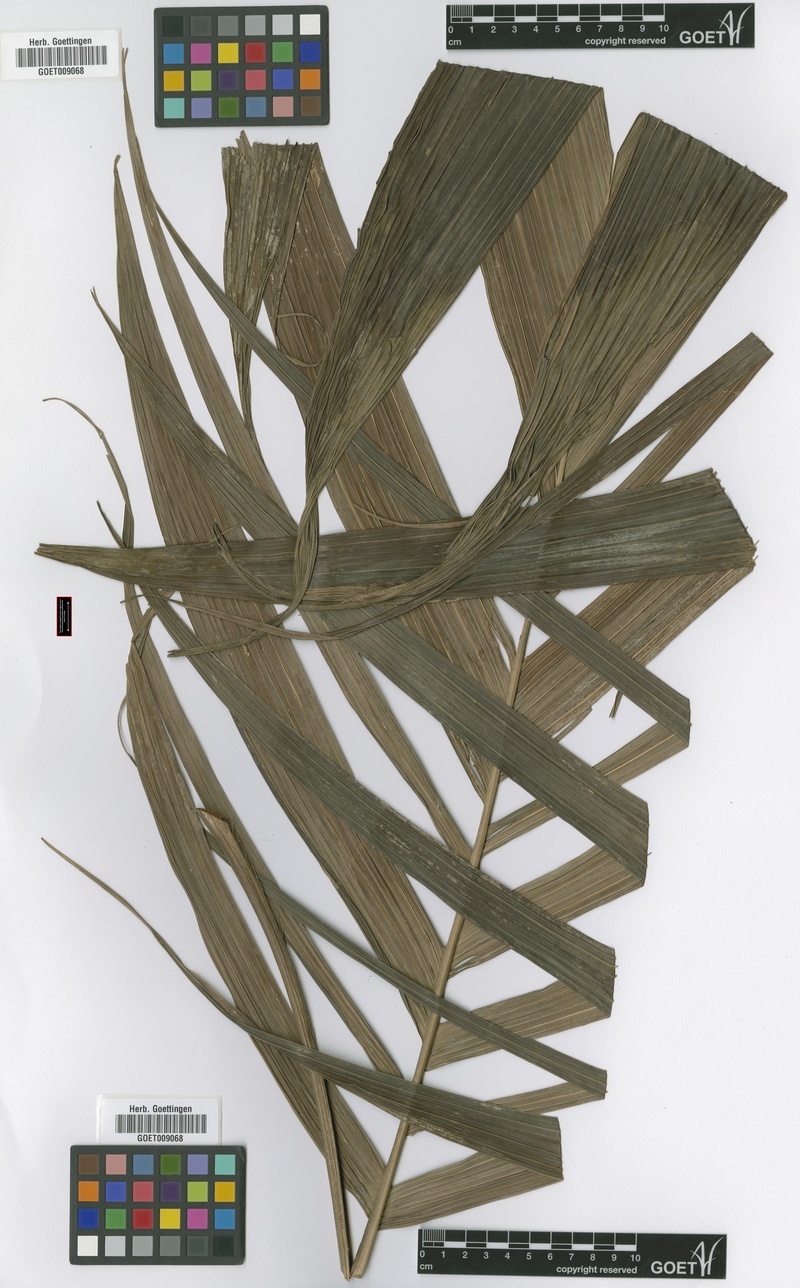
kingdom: Plantae
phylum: Tracheophyta
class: Liliopsida
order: Arecales
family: Arecaceae
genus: Calyptrogyne
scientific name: Calyptrogyne ghiesbreghtiana
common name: Coligallo
